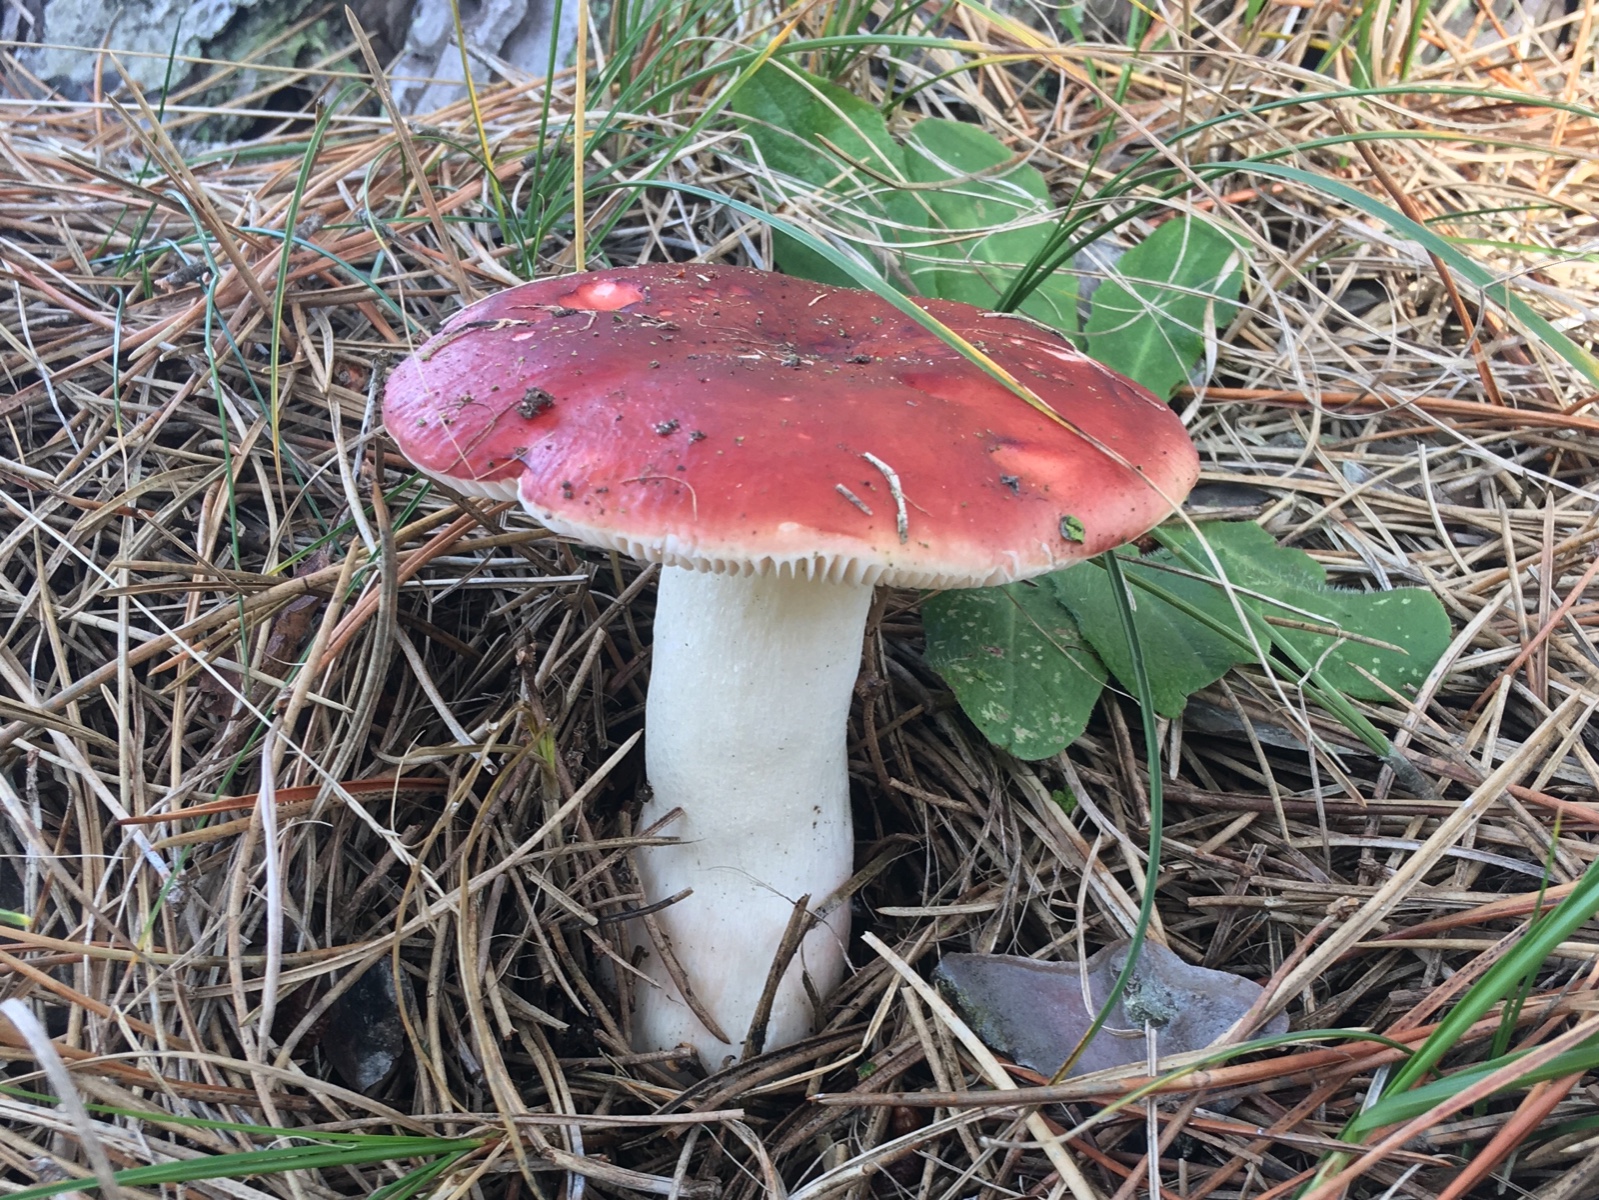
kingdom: Fungi
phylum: Basidiomycota
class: Agaricomycetes
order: Russulales
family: Russulaceae
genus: Russula
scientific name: Russula paludosa
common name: prægtig skørhat
